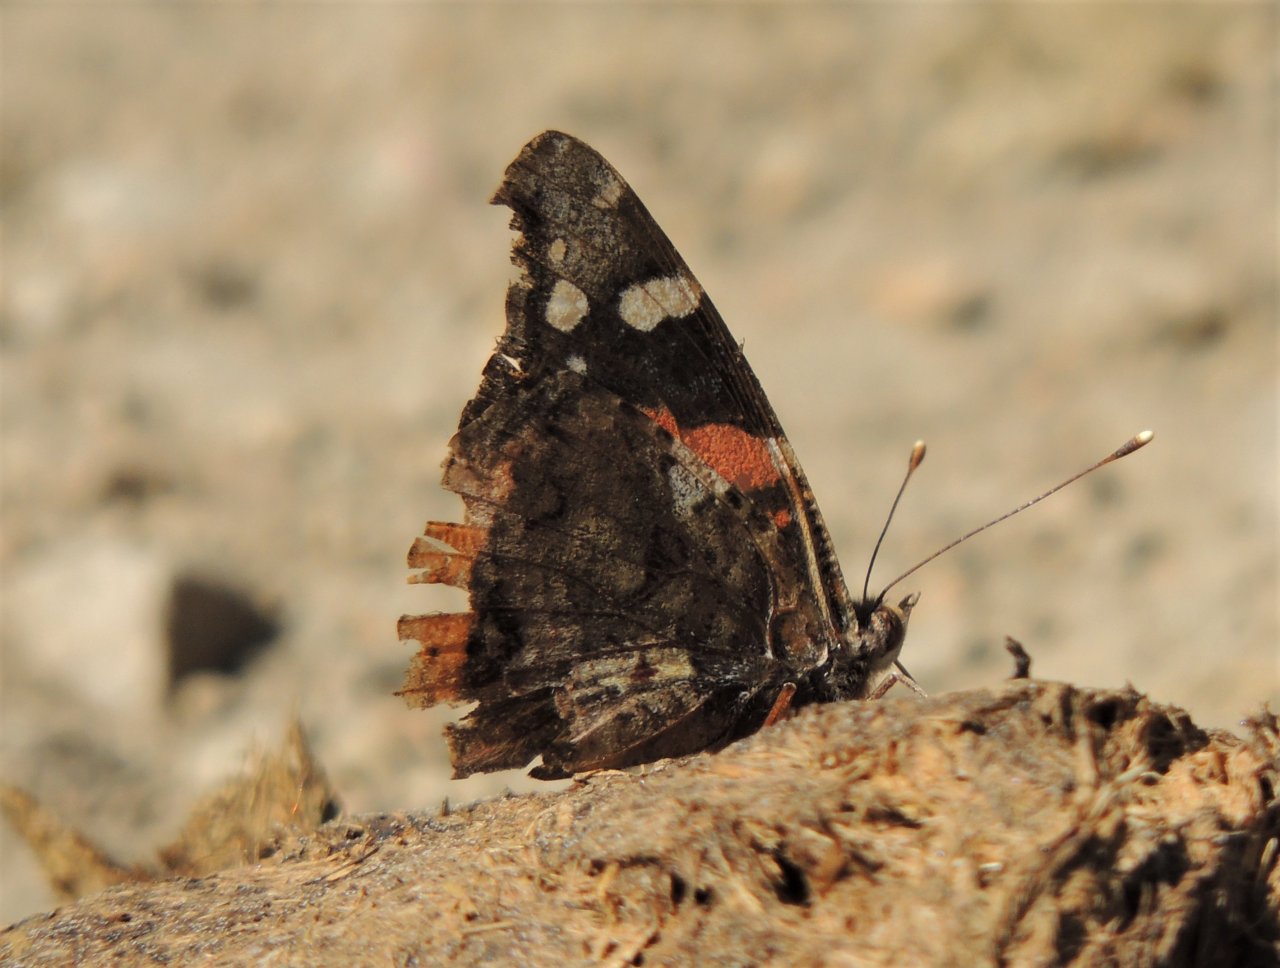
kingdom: Animalia
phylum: Arthropoda
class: Insecta
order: Lepidoptera
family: Nymphalidae
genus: Vanessa
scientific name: Vanessa atalanta
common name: Red Admiral
